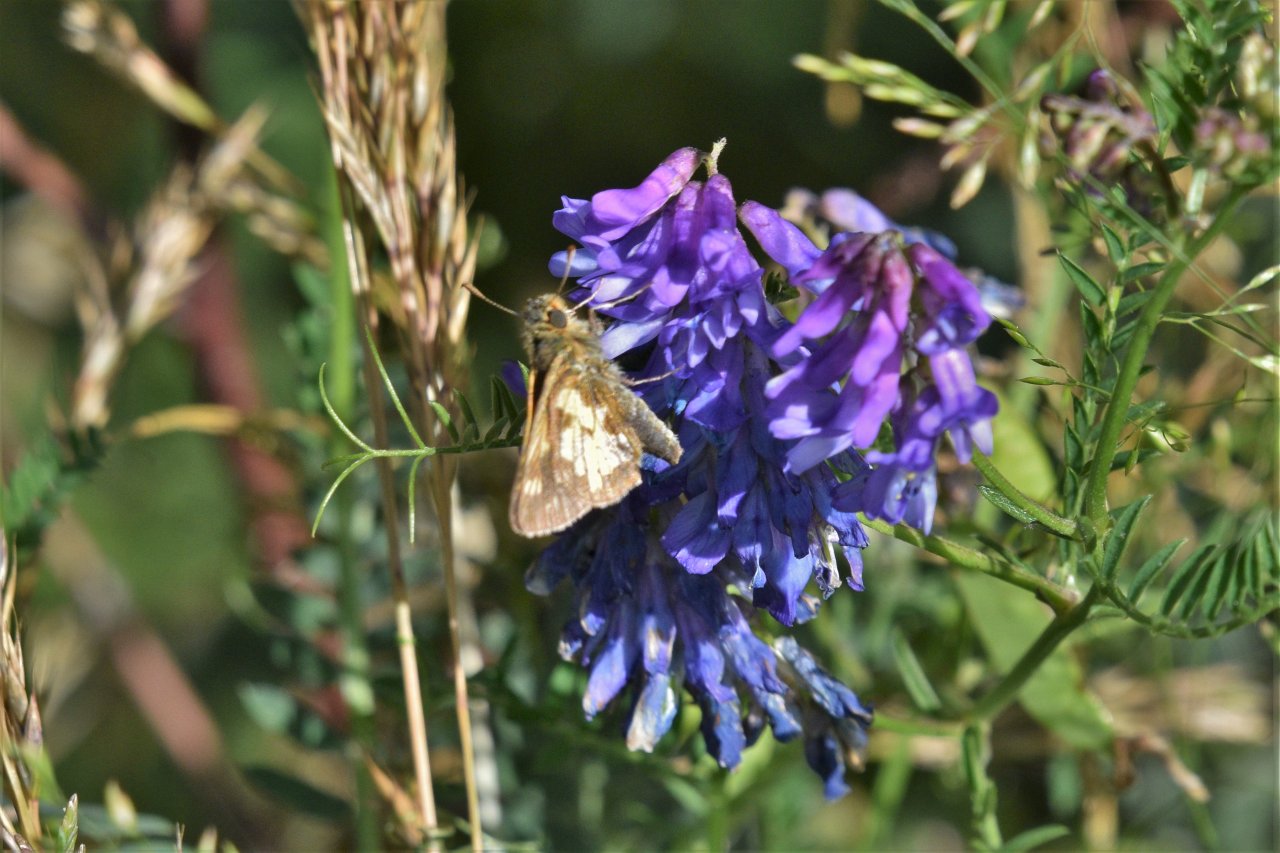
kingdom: Animalia
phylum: Arthropoda
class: Insecta
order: Lepidoptera
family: Hesperiidae
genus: Polites
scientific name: Polites coras
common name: Peck's Skipper
